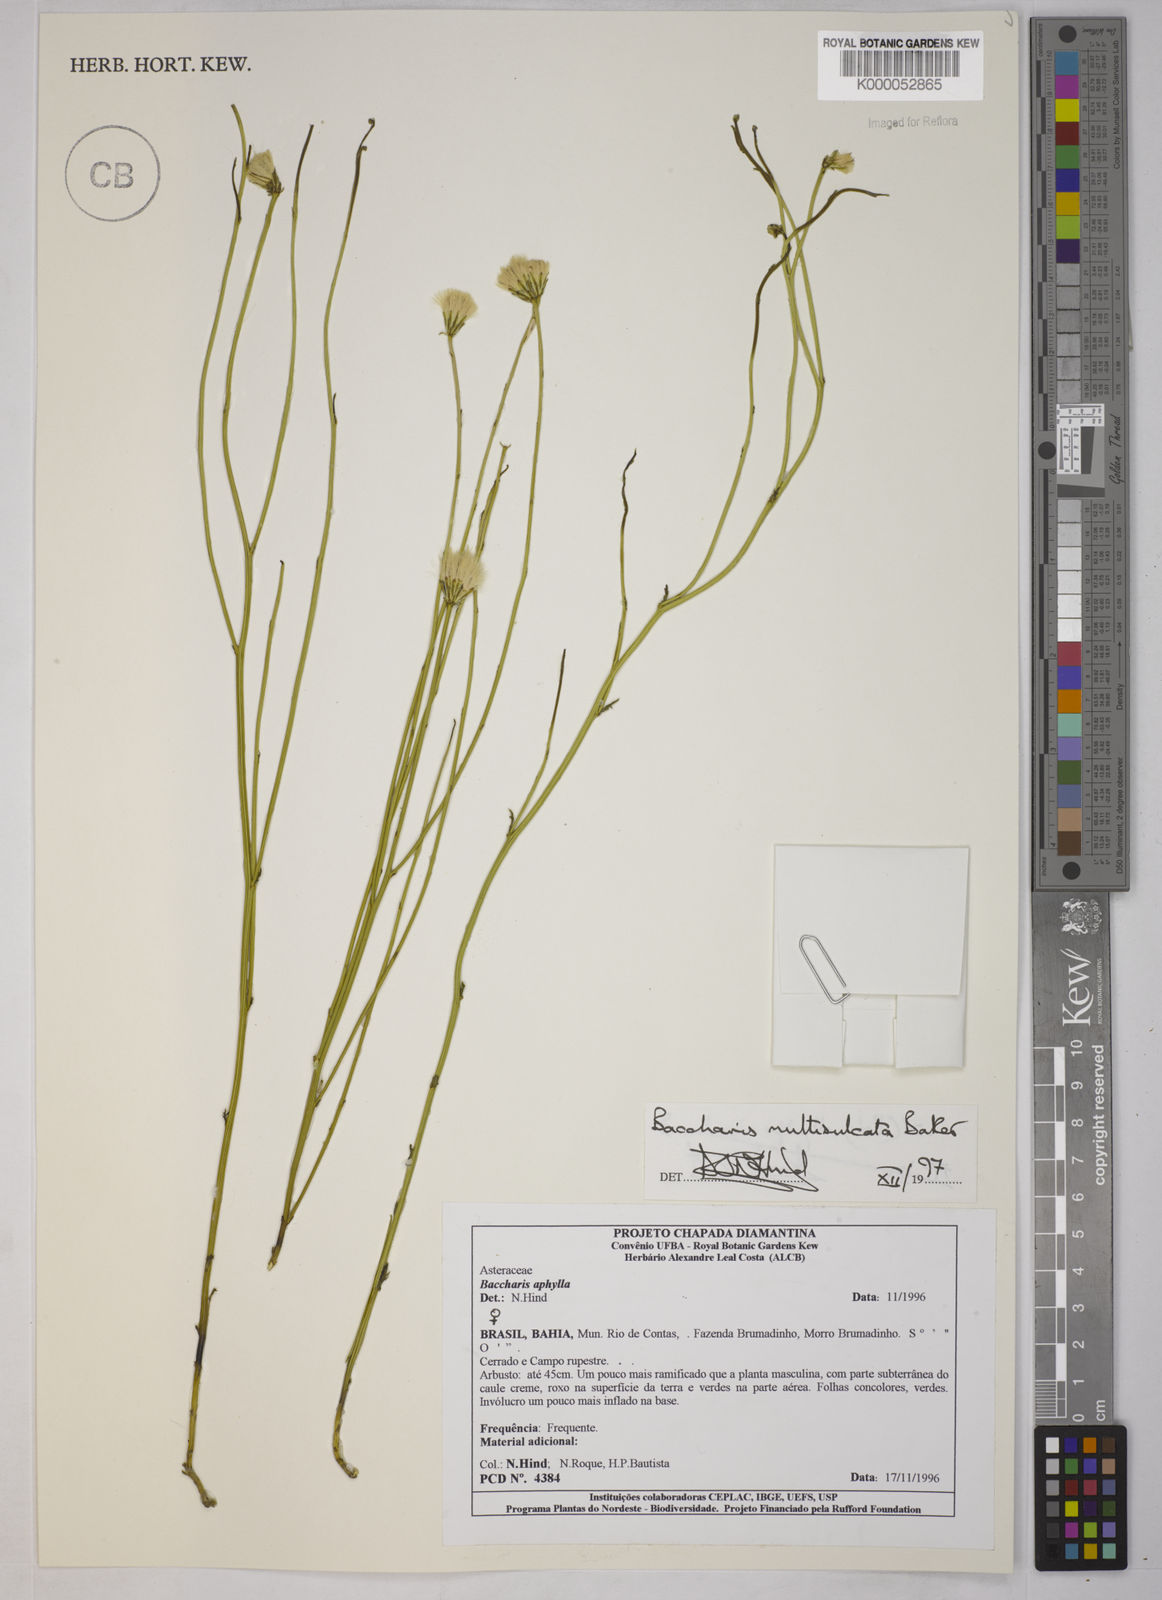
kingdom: Plantae
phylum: Tracheophyta
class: Magnoliopsida
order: Asterales
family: Asteraceae
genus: Baccharis
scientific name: Baccharis orbignyana
